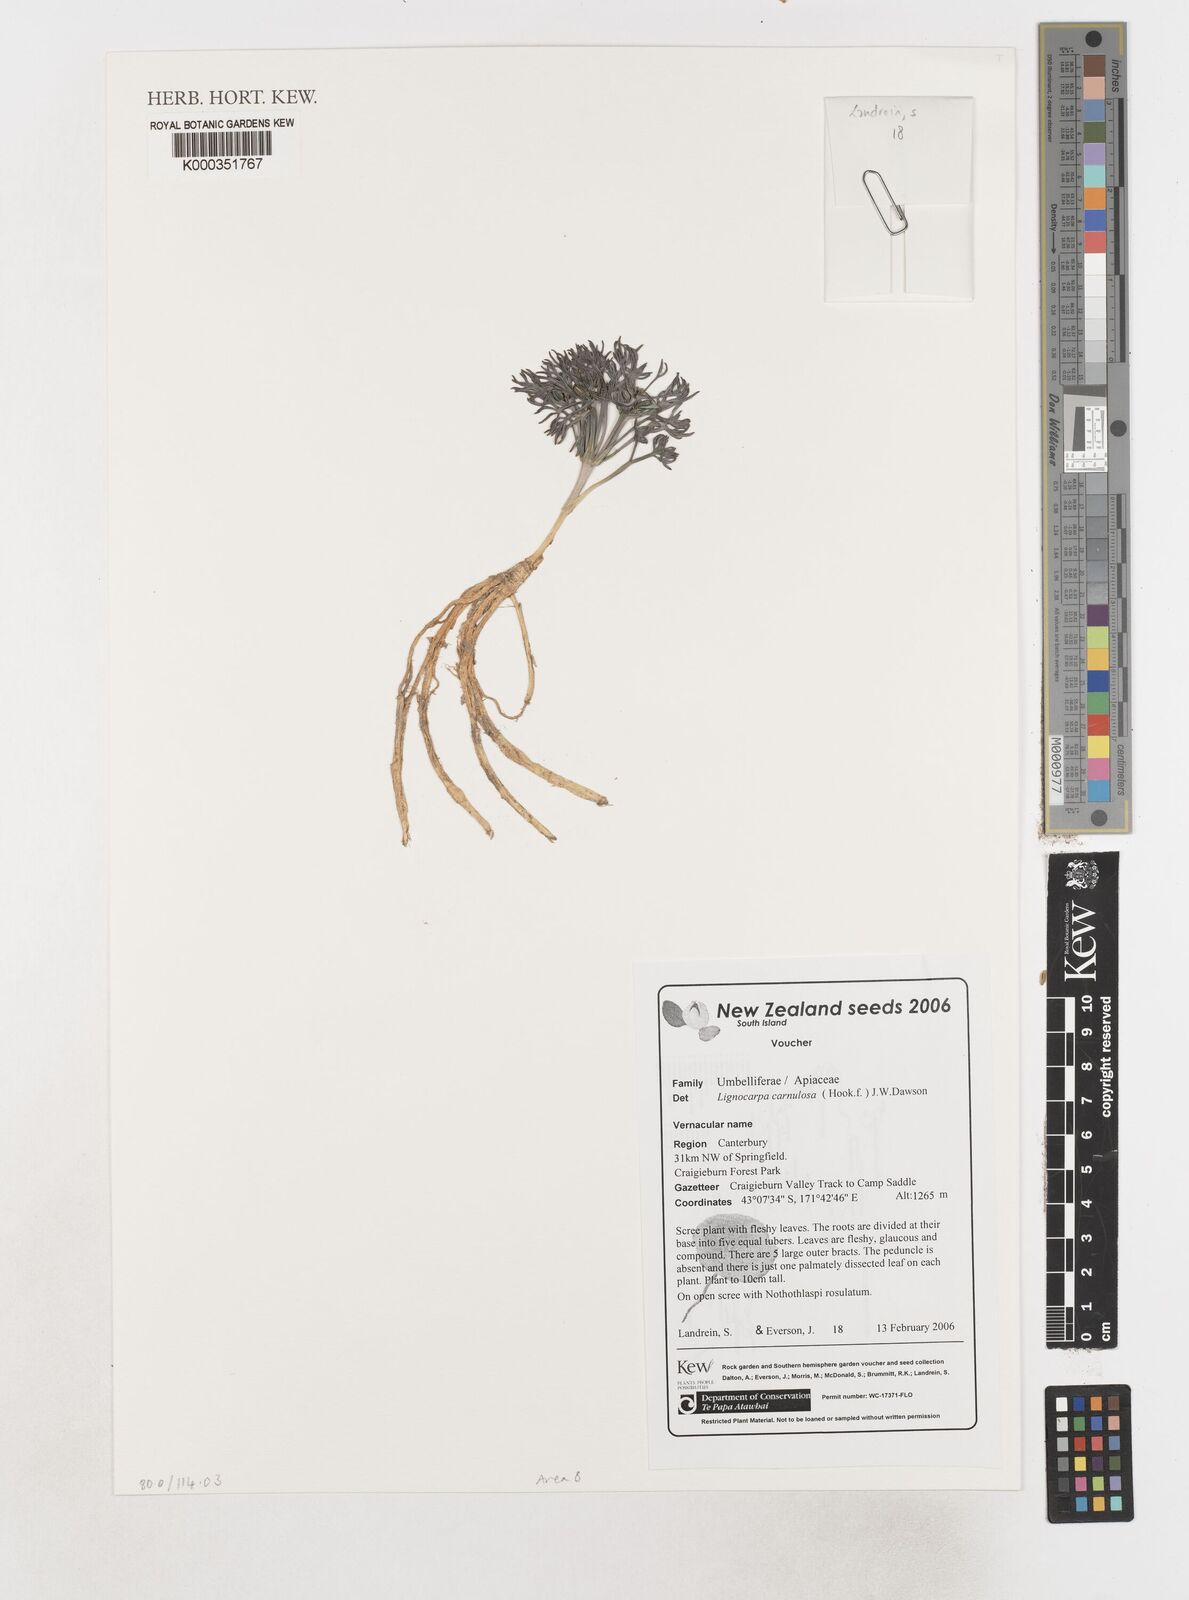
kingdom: Plantae
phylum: Tracheophyta
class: Magnoliopsida
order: Apiales
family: Apiaceae
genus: Lignocarpa
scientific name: Lignocarpa
